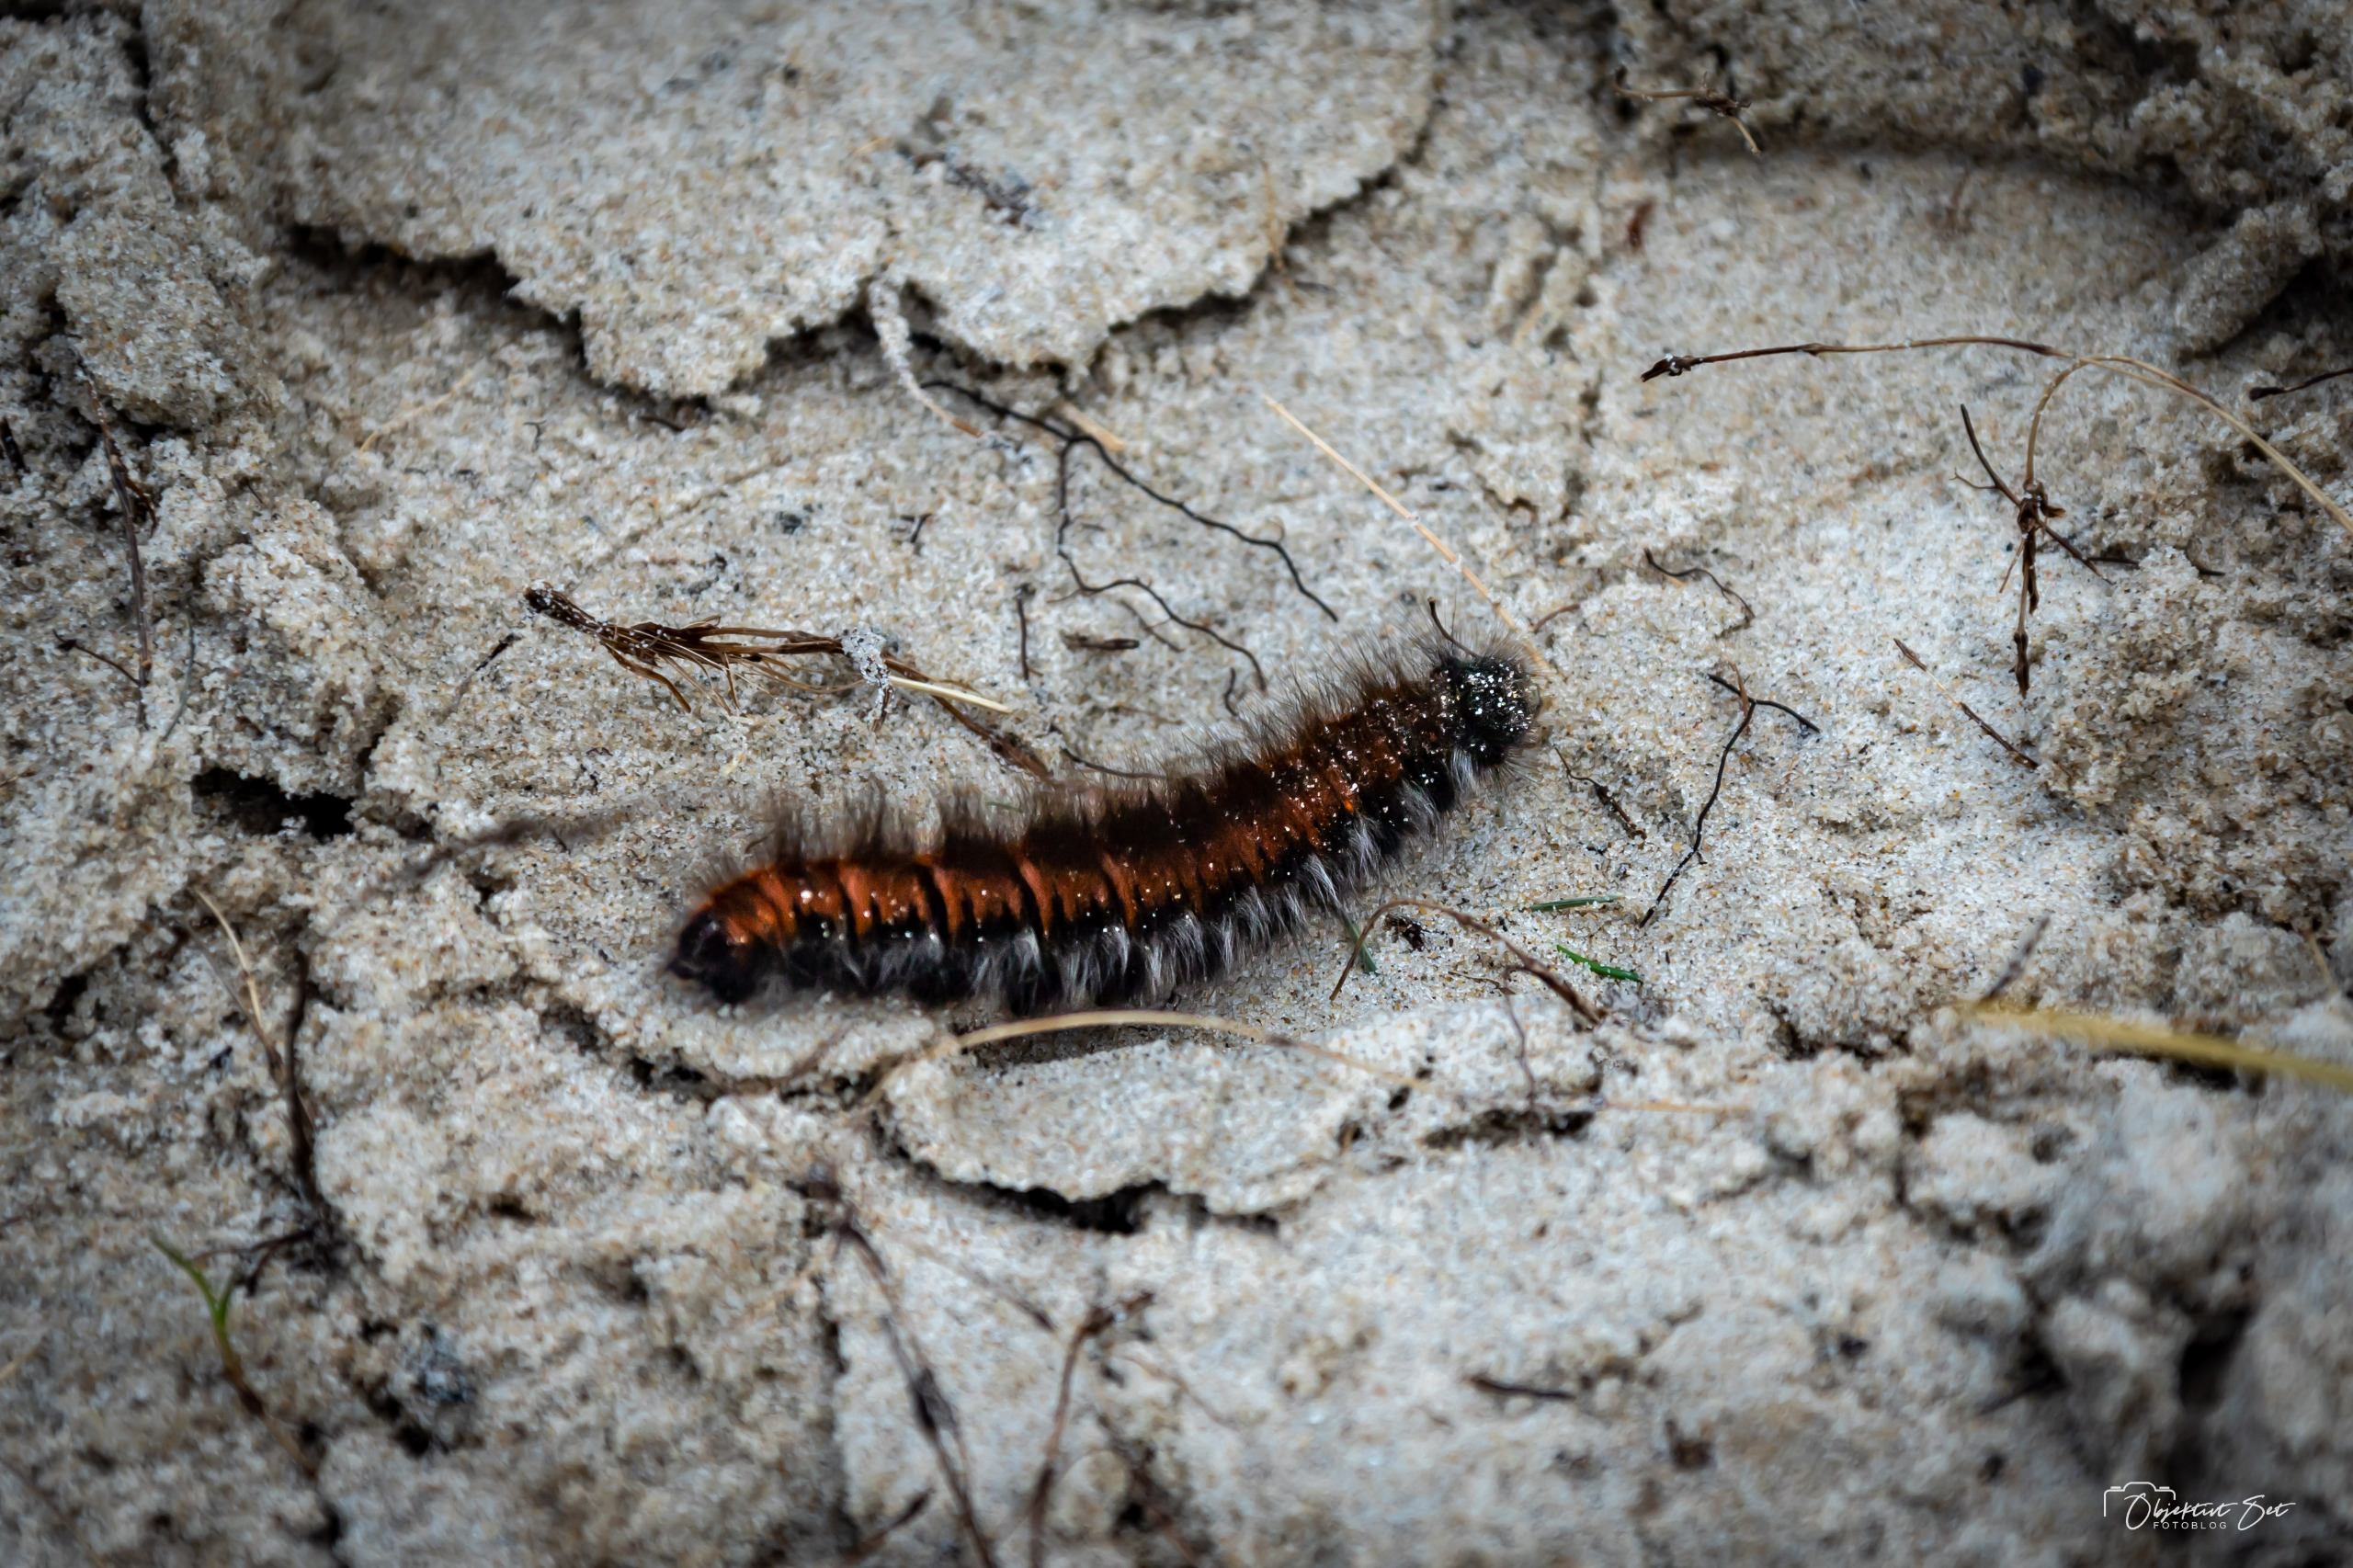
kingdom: Animalia
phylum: Arthropoda
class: Insecta
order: Lepidoptera
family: Lasiocampidae
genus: Macrothylacia
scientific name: Macrothylacia rubi
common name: Brombærspinder
